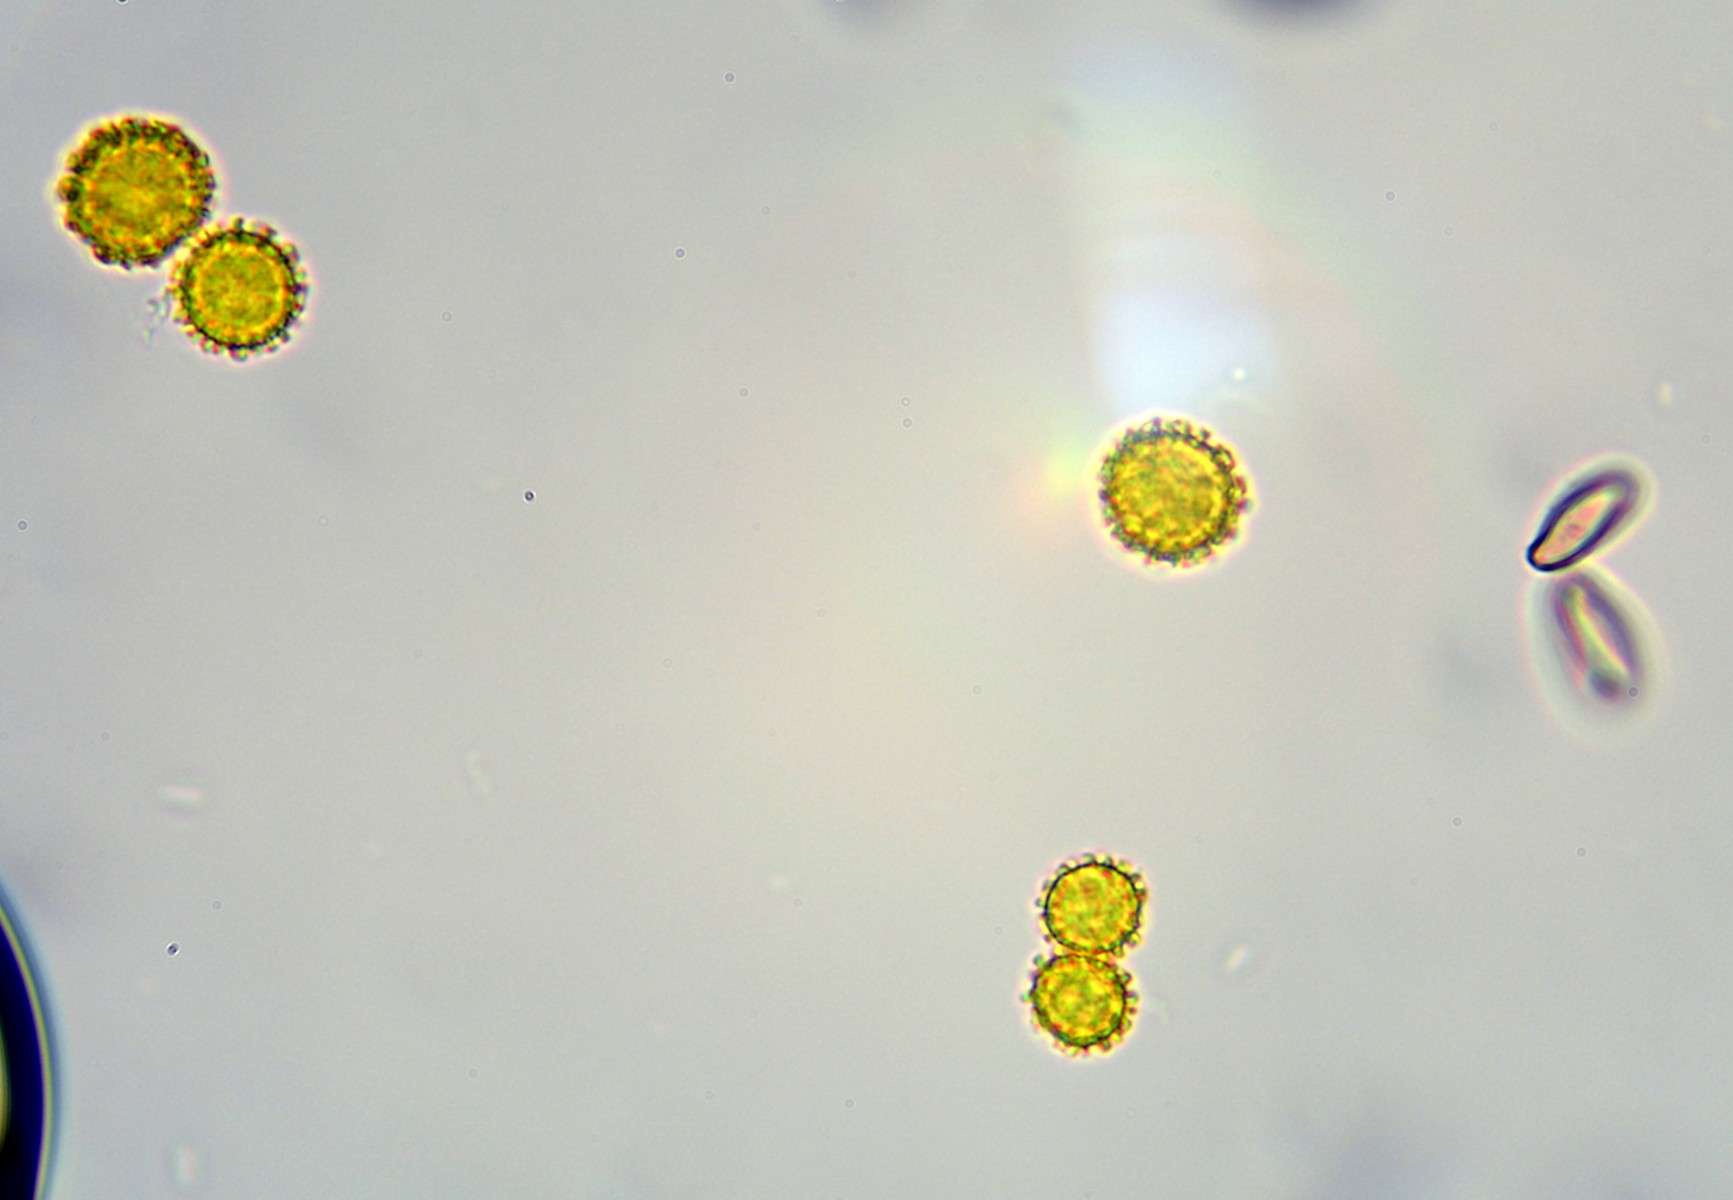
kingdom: Fungi
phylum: Ascomycota
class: Sordariomycetes
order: Hypocreales
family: Hypocreaceae
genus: Hypomyces
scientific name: Hypomyces microspermus
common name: dværgrørhat-snylteskorpe
